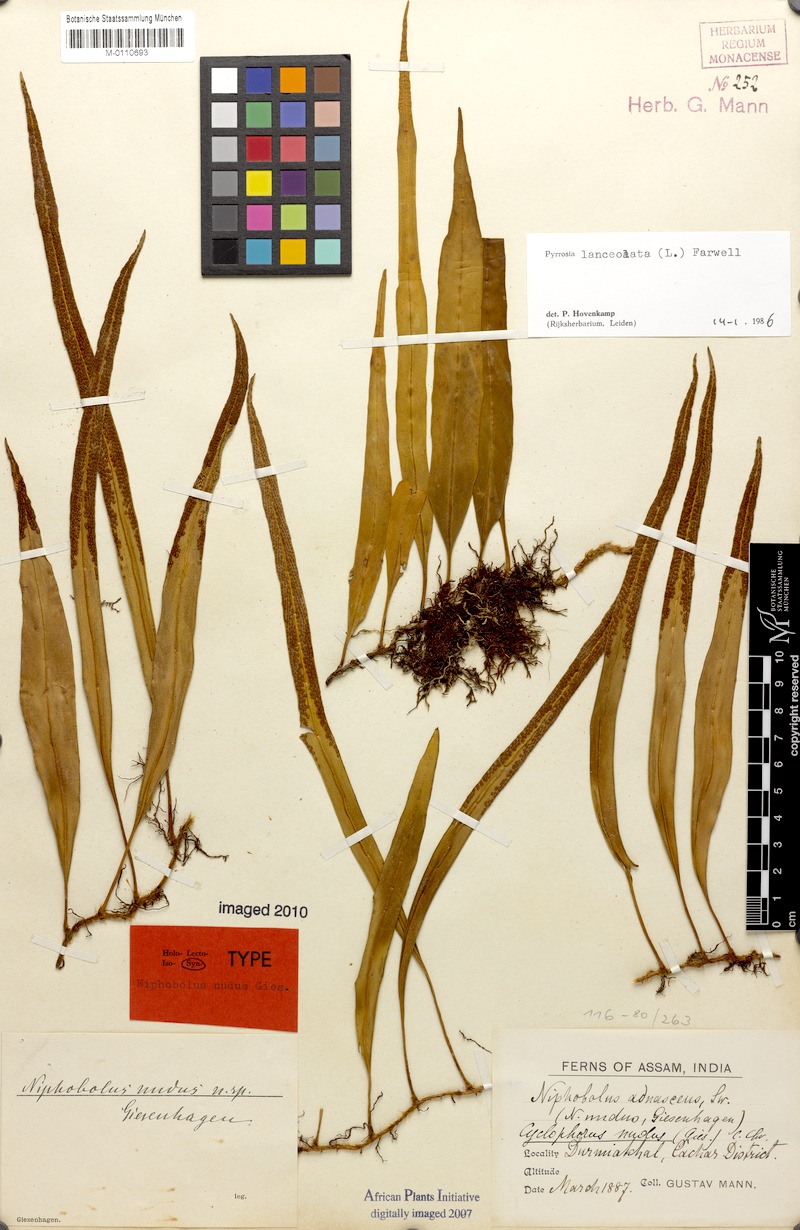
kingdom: Plantae
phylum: Tracheophyta
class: Polypodiopsida
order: Polypodiales
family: Polypodiaceae
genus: Pyrrosia
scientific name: Pyrrosia lanceolata
